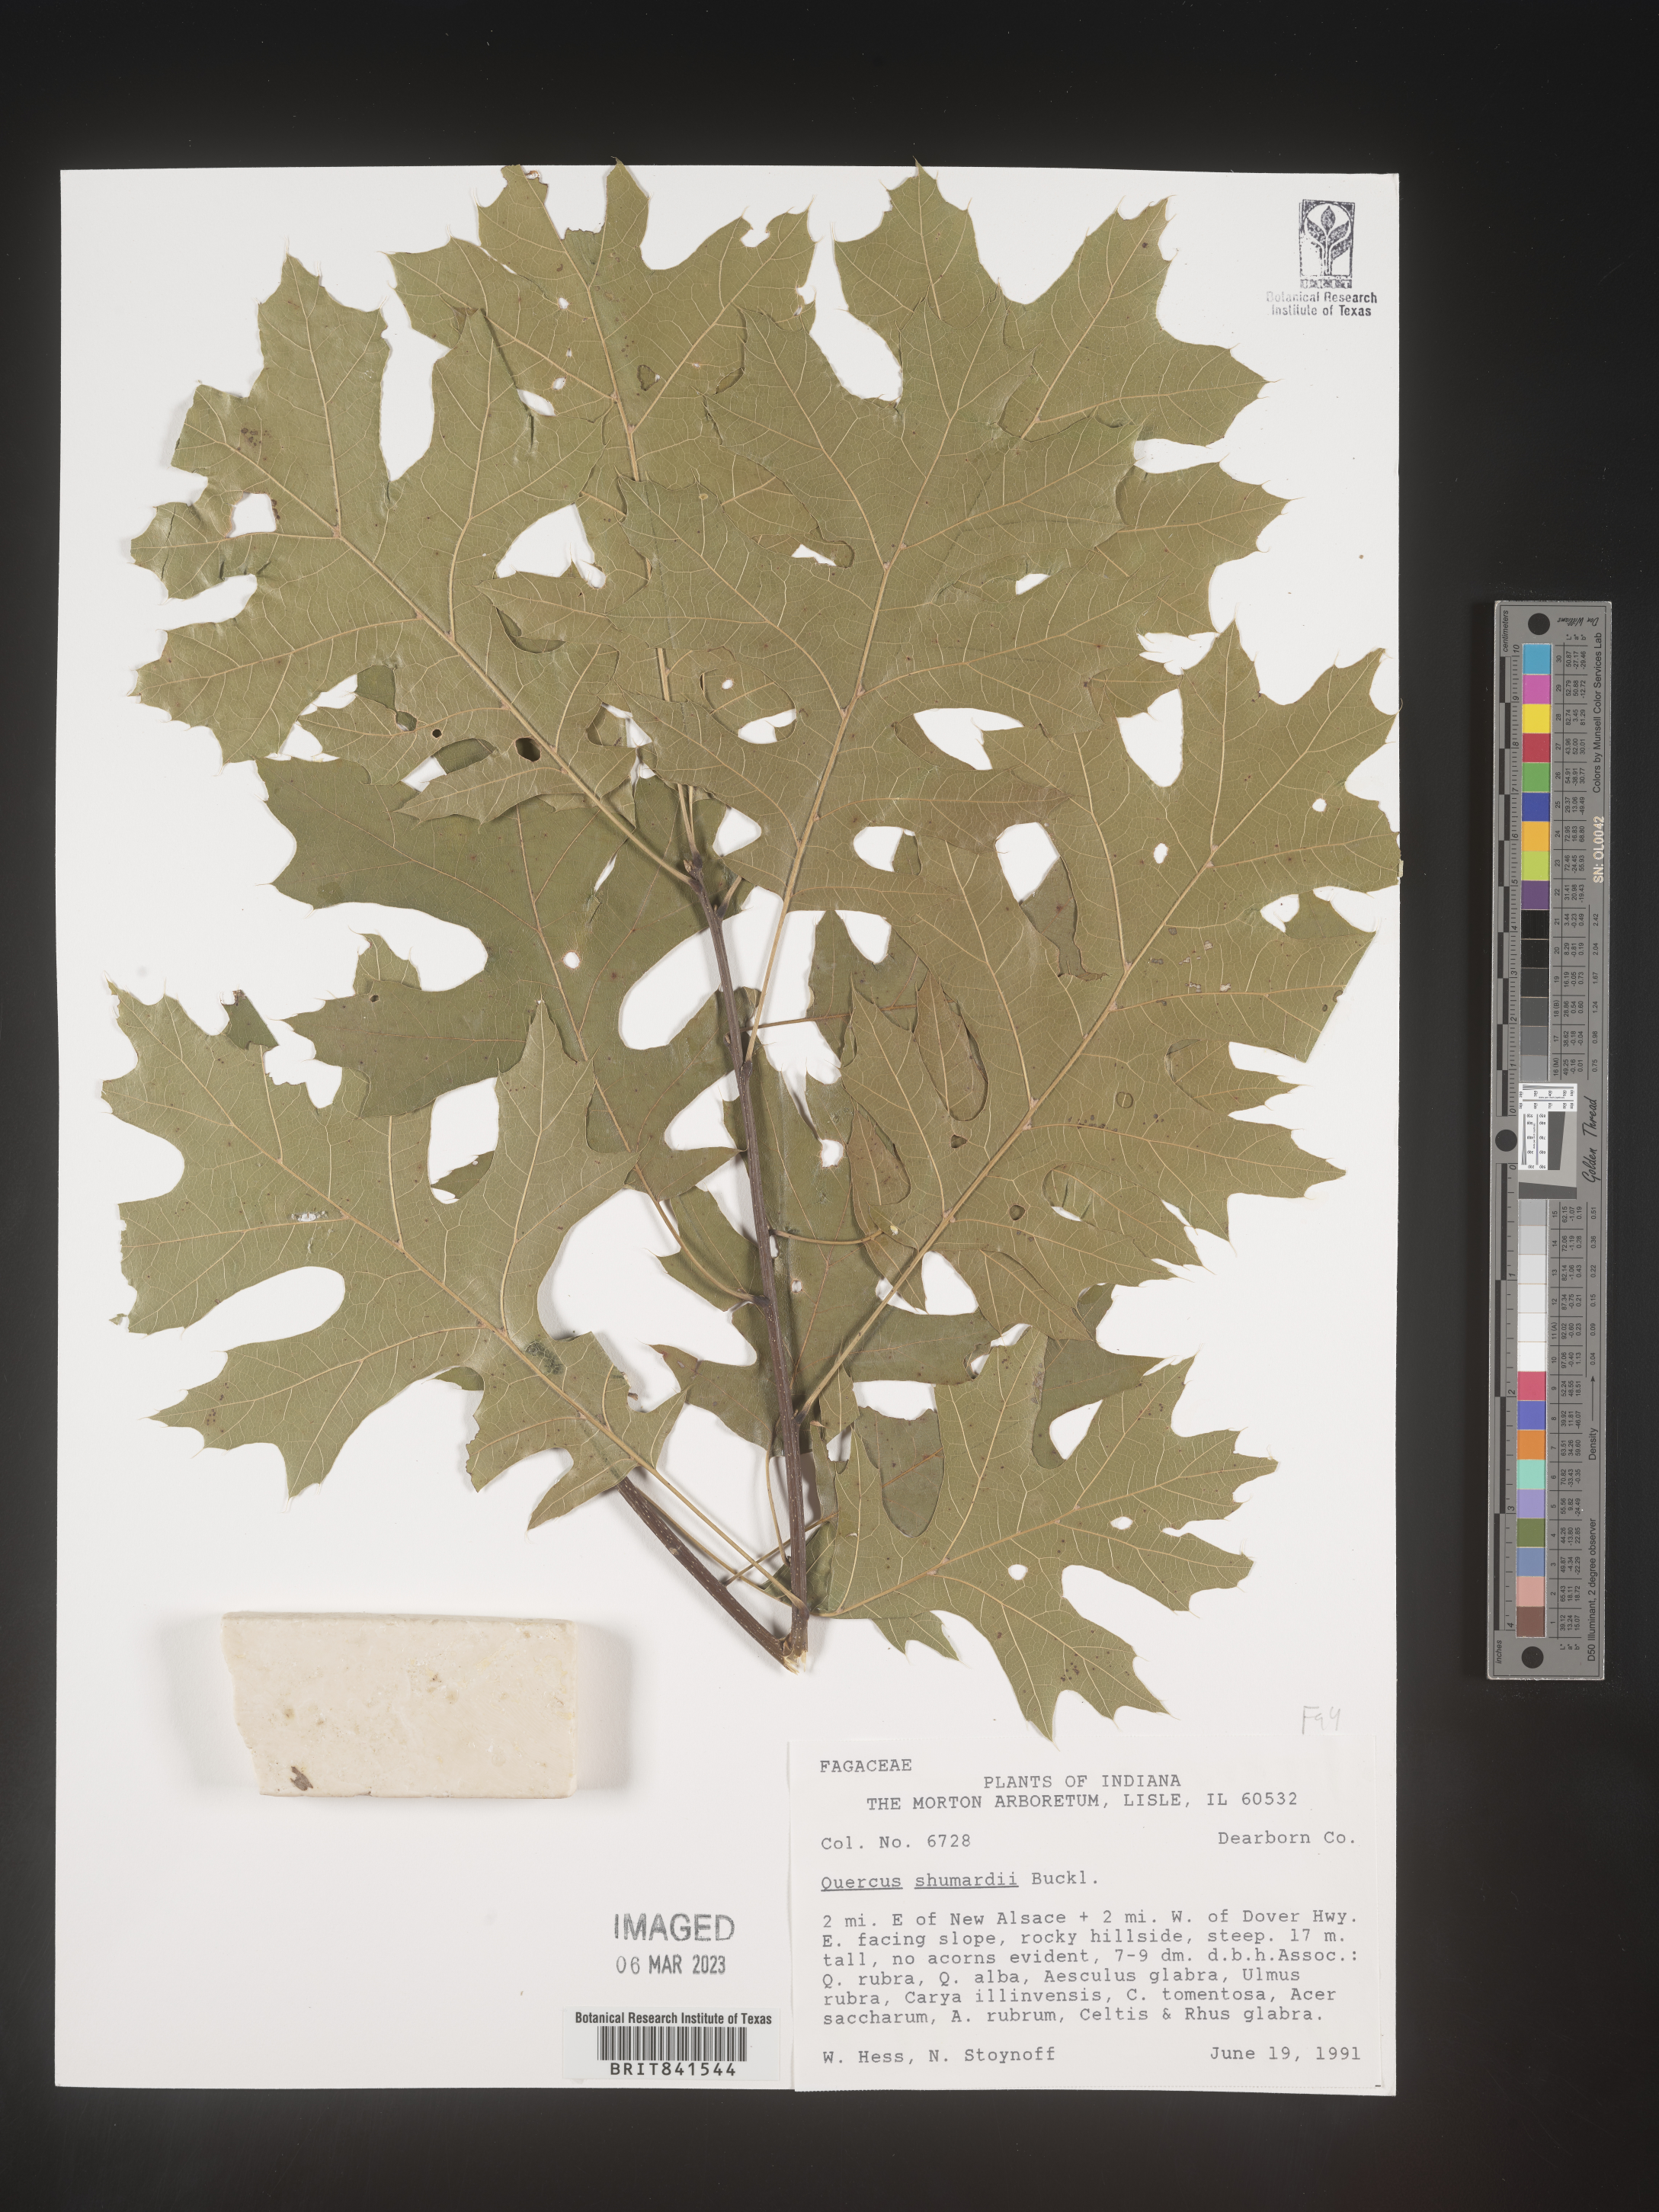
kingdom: Plantae
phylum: Tracheophyta
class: Magnoliopsida
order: Fagales
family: Fagaceae
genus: Quercus
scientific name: Quercus shumardii
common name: Shumard oak
